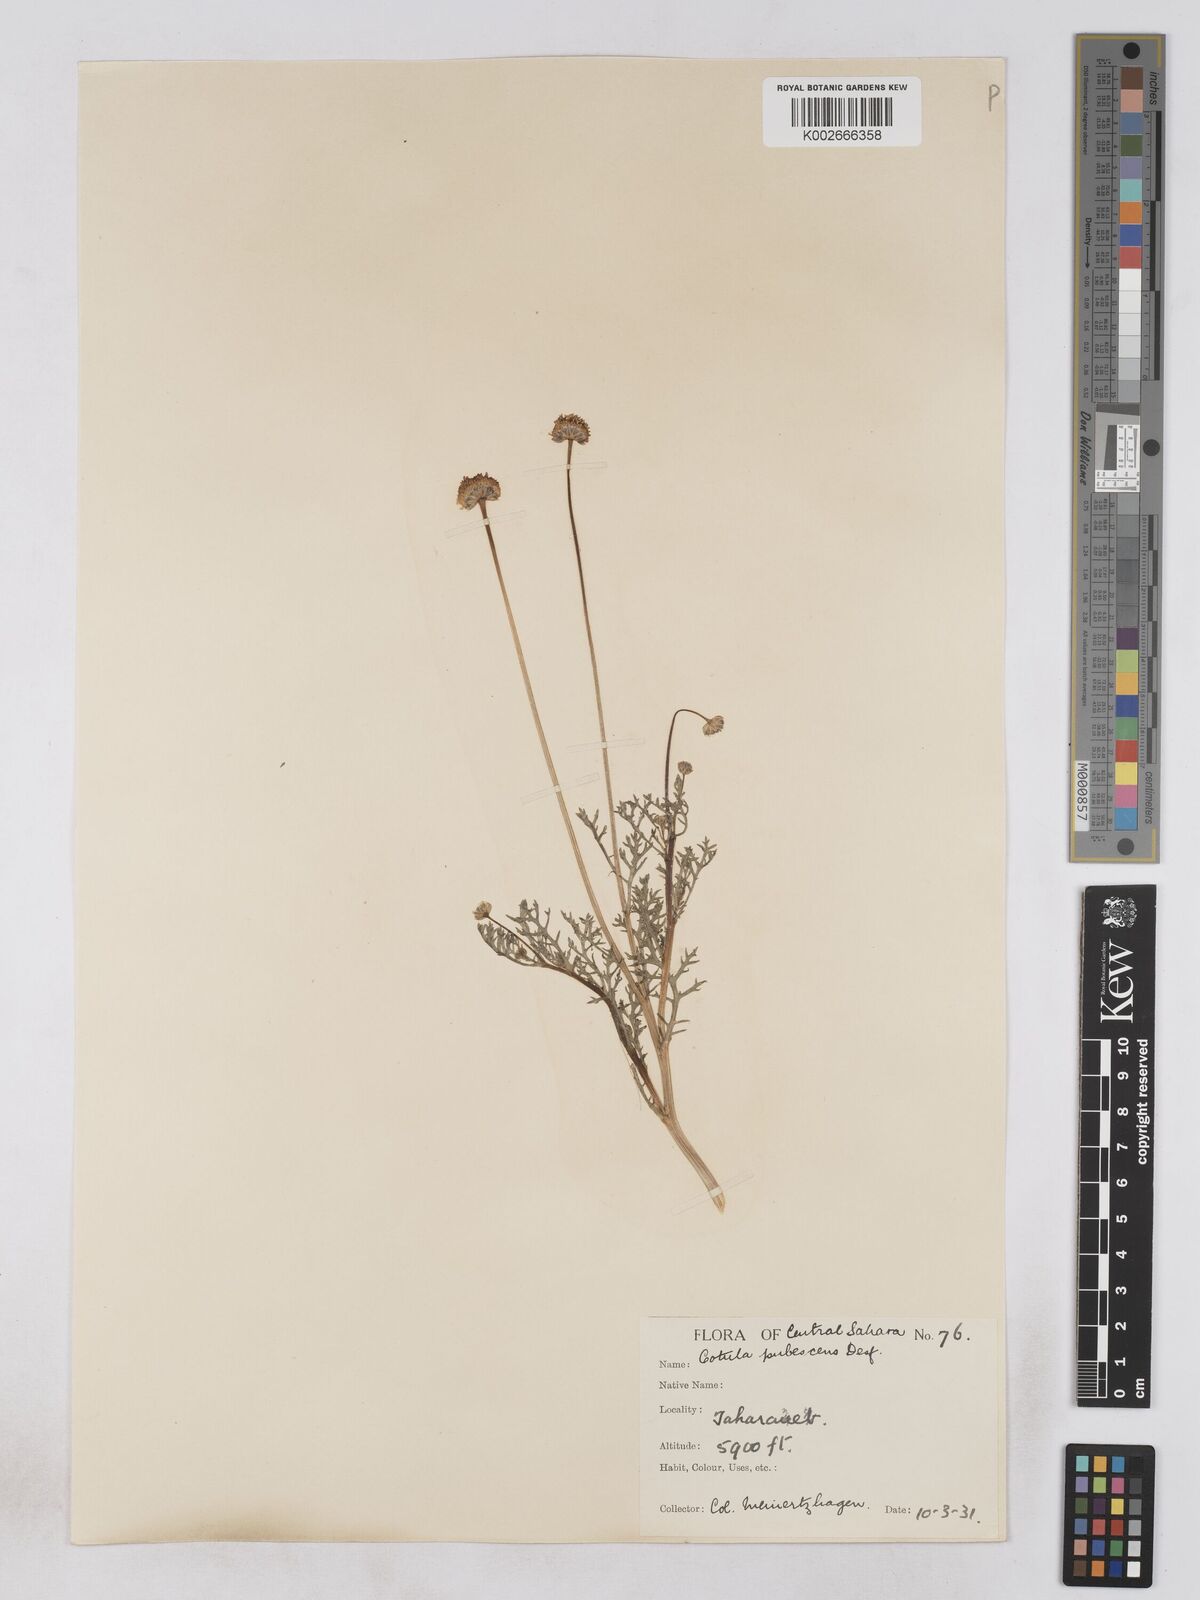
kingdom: Plantae
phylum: Tracheophyta
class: Magnoliopsida
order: Asterales
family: Asteraceae
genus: Otoglyphis
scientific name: Otoglyphis pubescens
